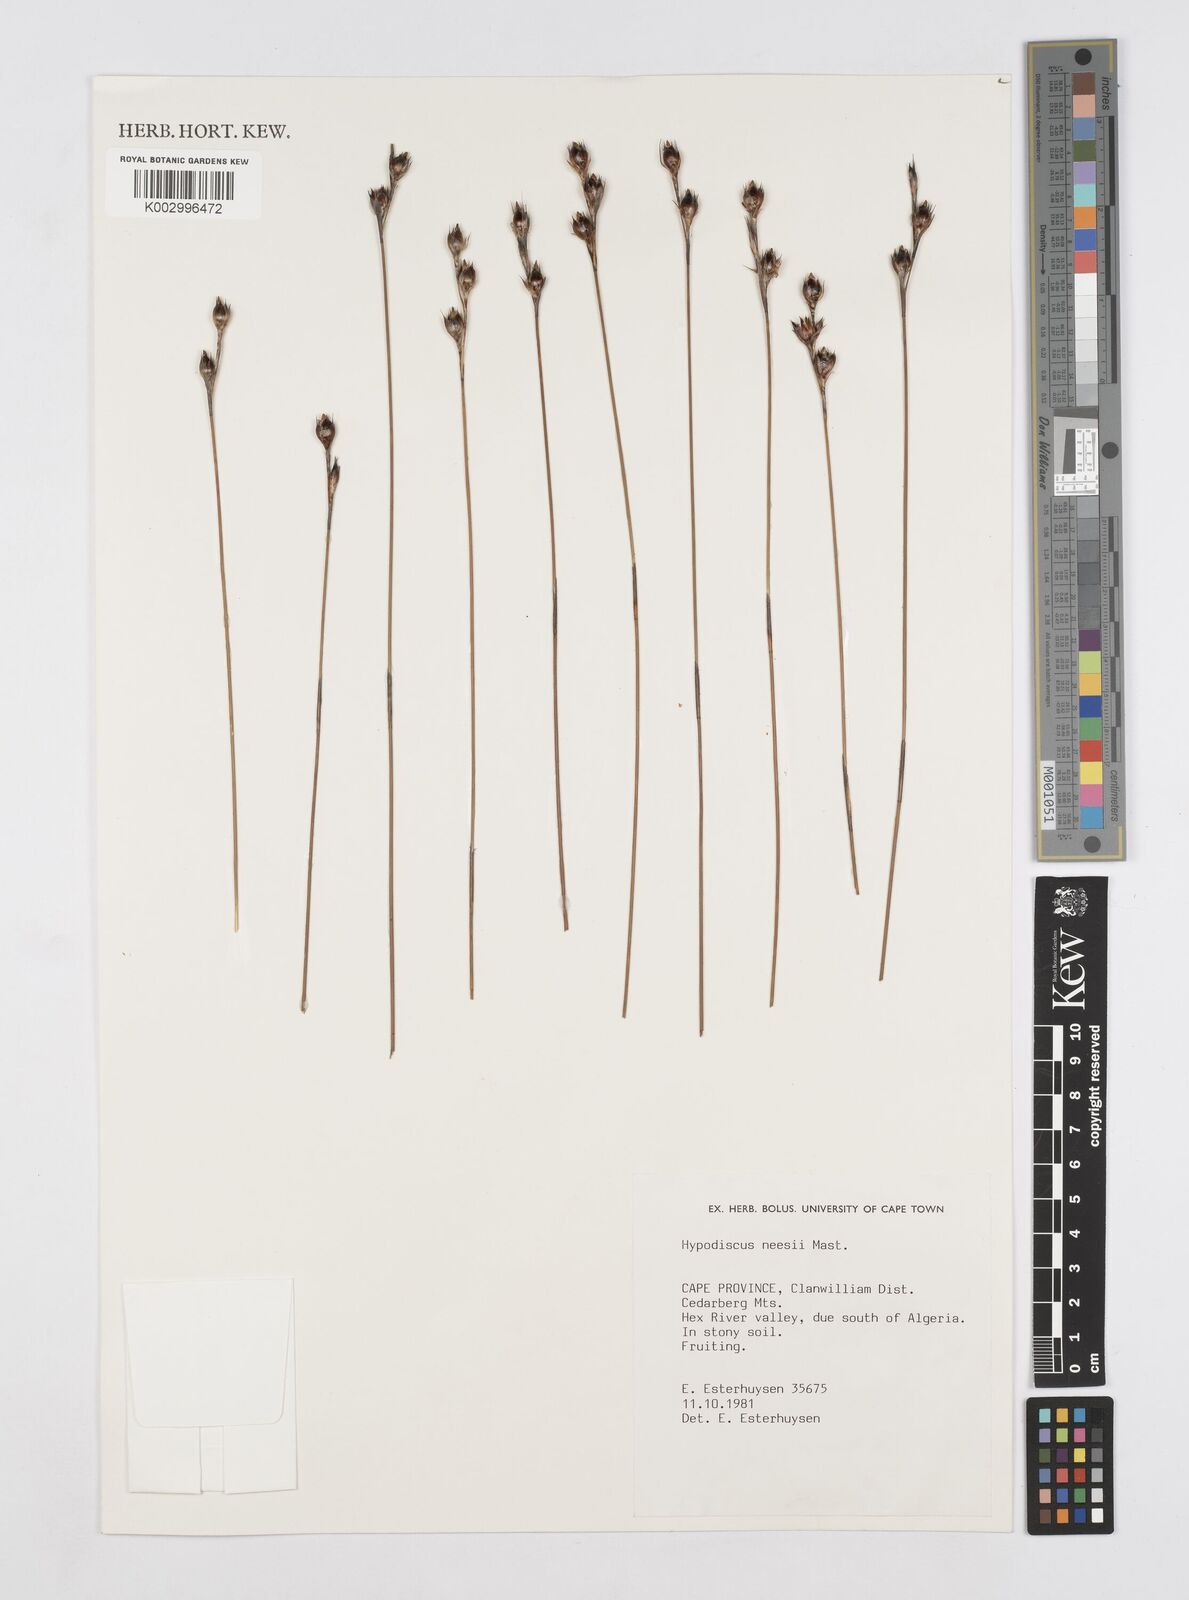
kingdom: Plantae
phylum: Tracheophyta
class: Liliopsida
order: Poales
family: Restionaceae
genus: Hypodiscus
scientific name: Hypodiscus neesii
